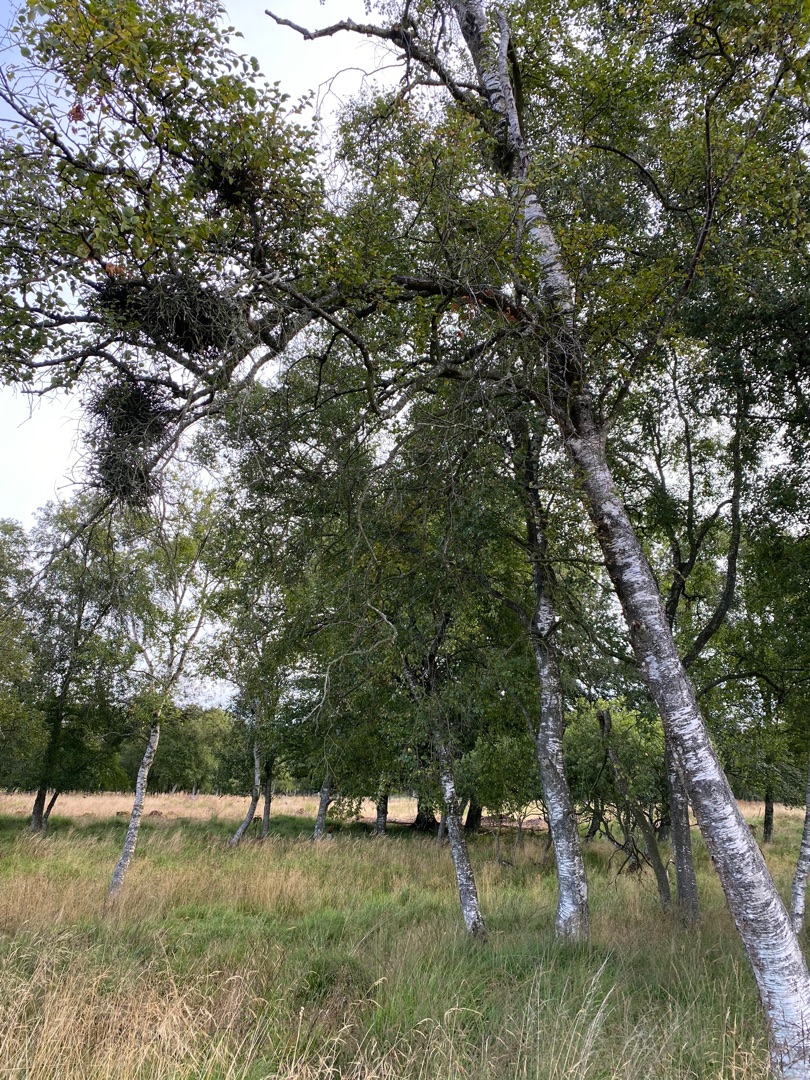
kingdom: Plantae
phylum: Tracheophyta
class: Magnoliopsida
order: Fagales
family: Betulaceae
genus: Betula
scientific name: Betula pubescens
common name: Dun-birk
